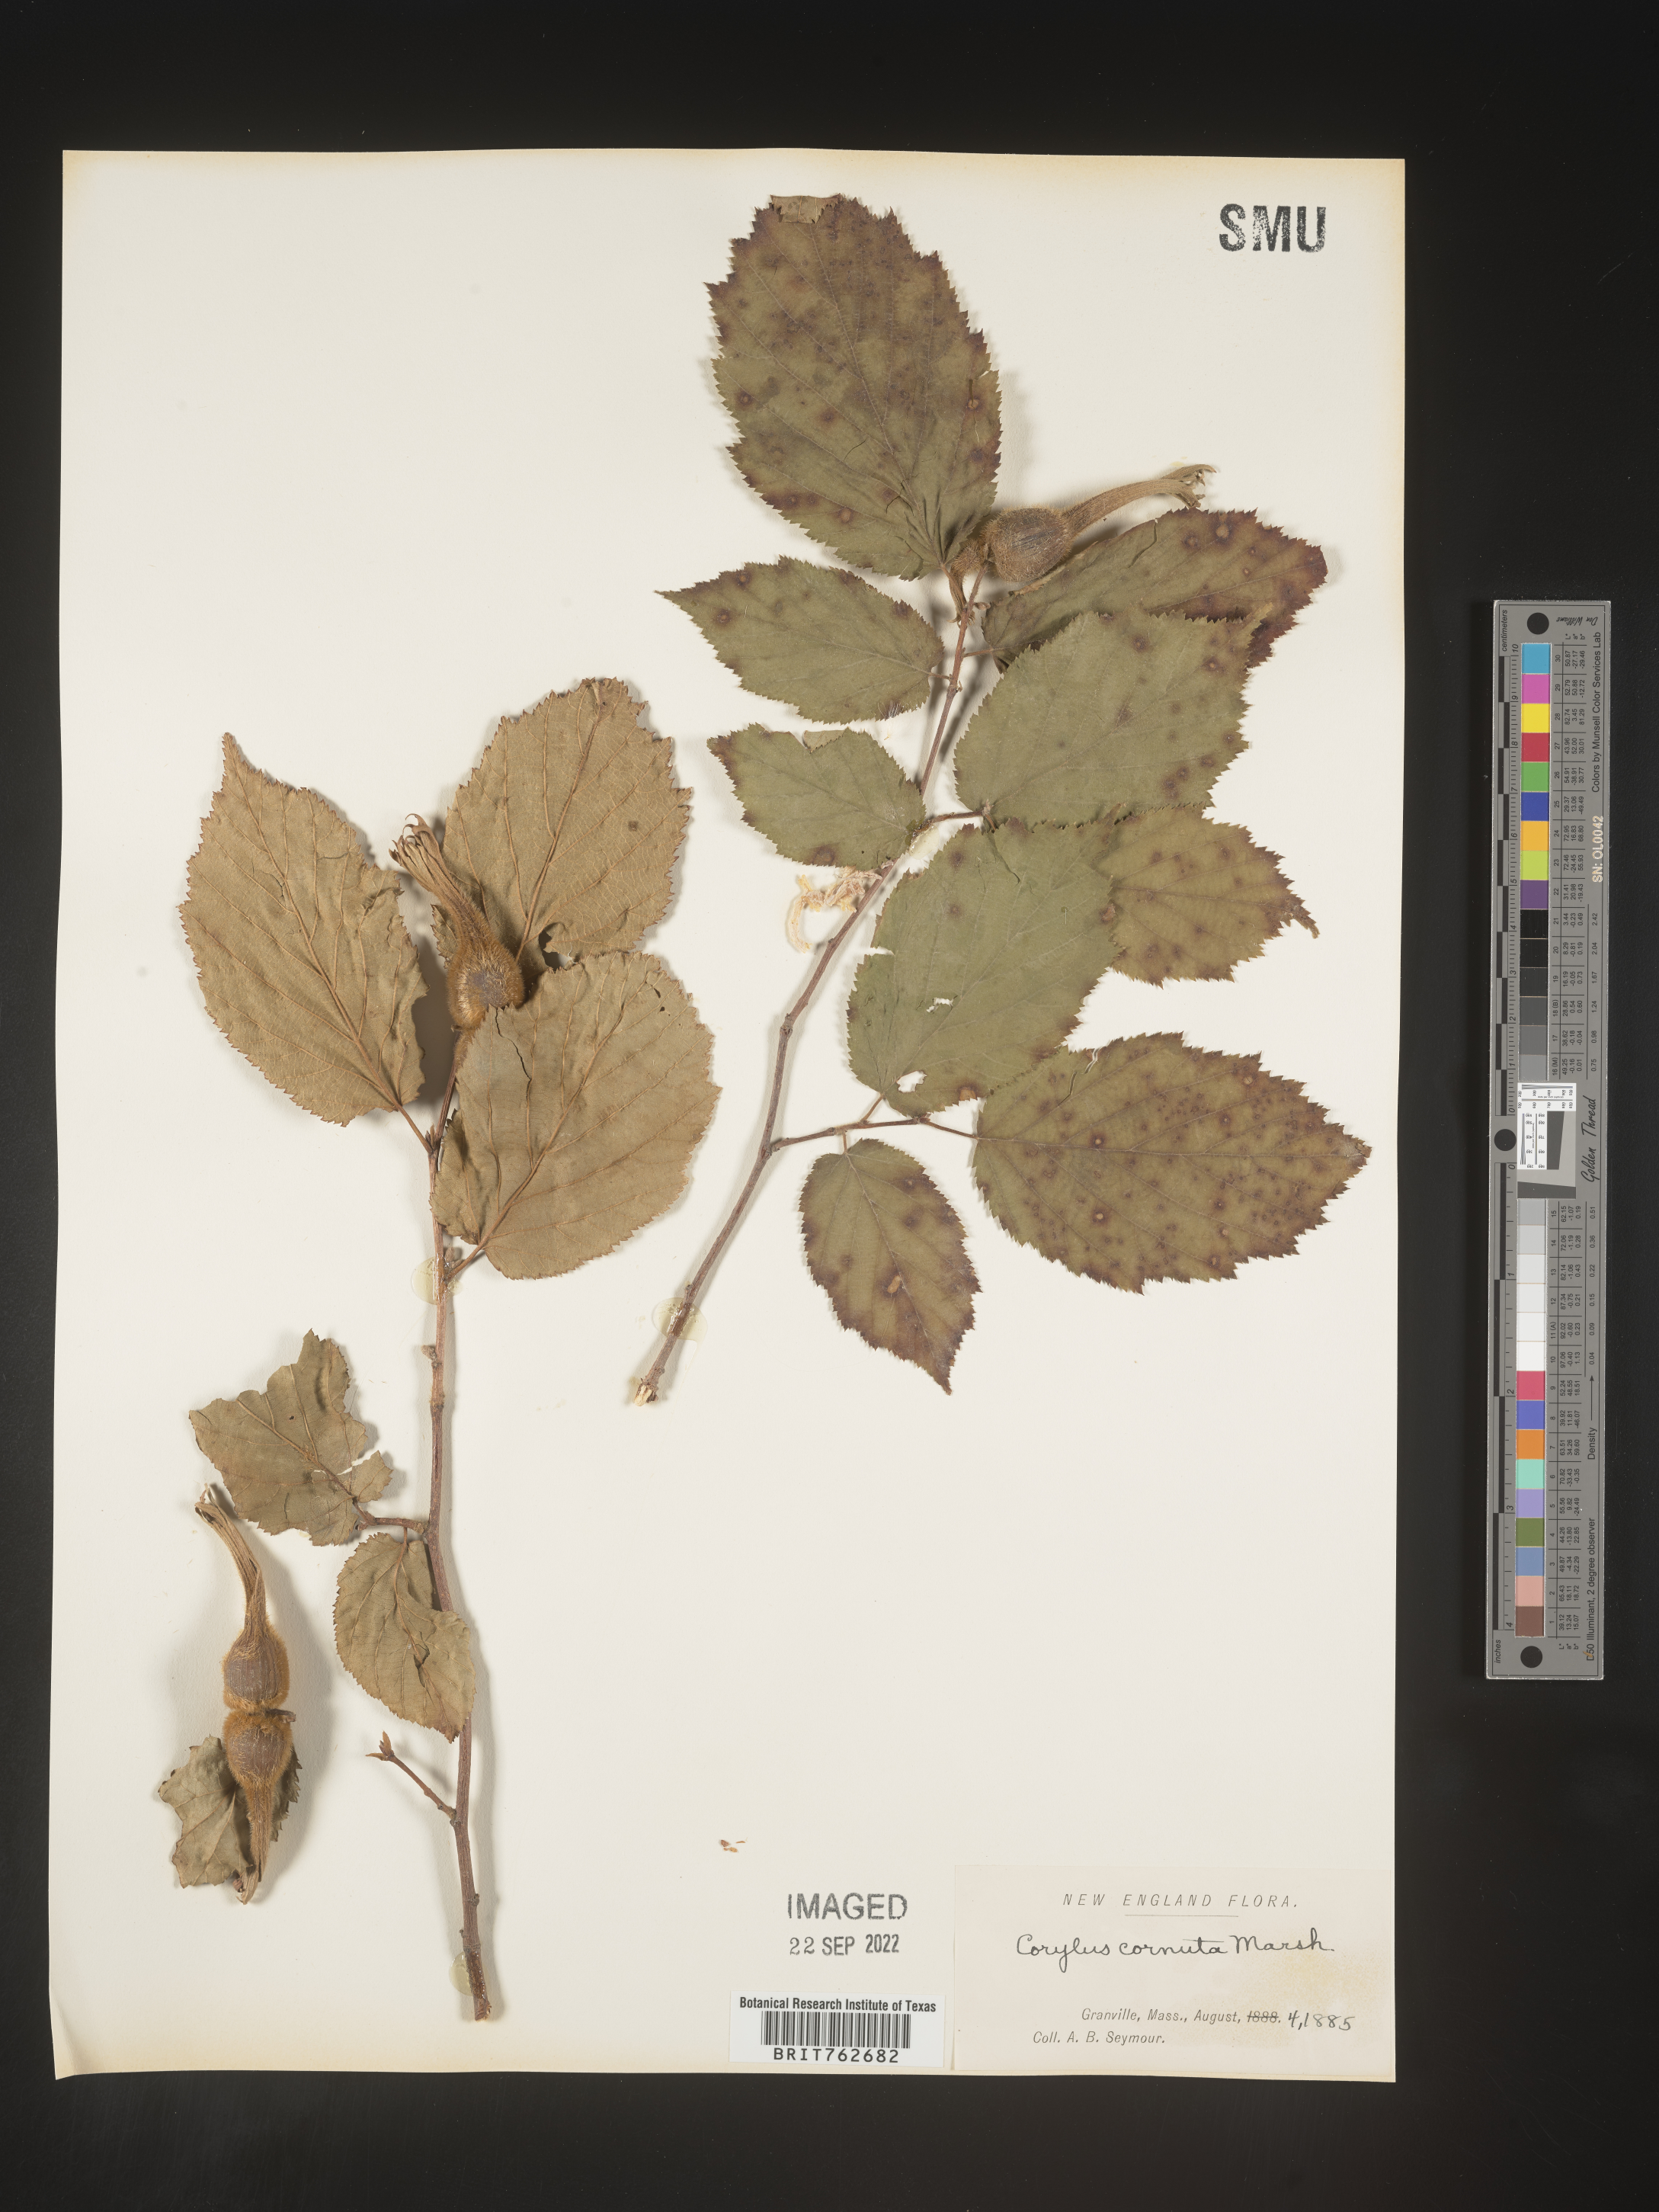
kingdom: Plantae
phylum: Tracheophyta
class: Magnoliopsida
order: Fagales
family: Betulaceae
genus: Corylus
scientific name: Corylus cornuta
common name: Beaked hazel
